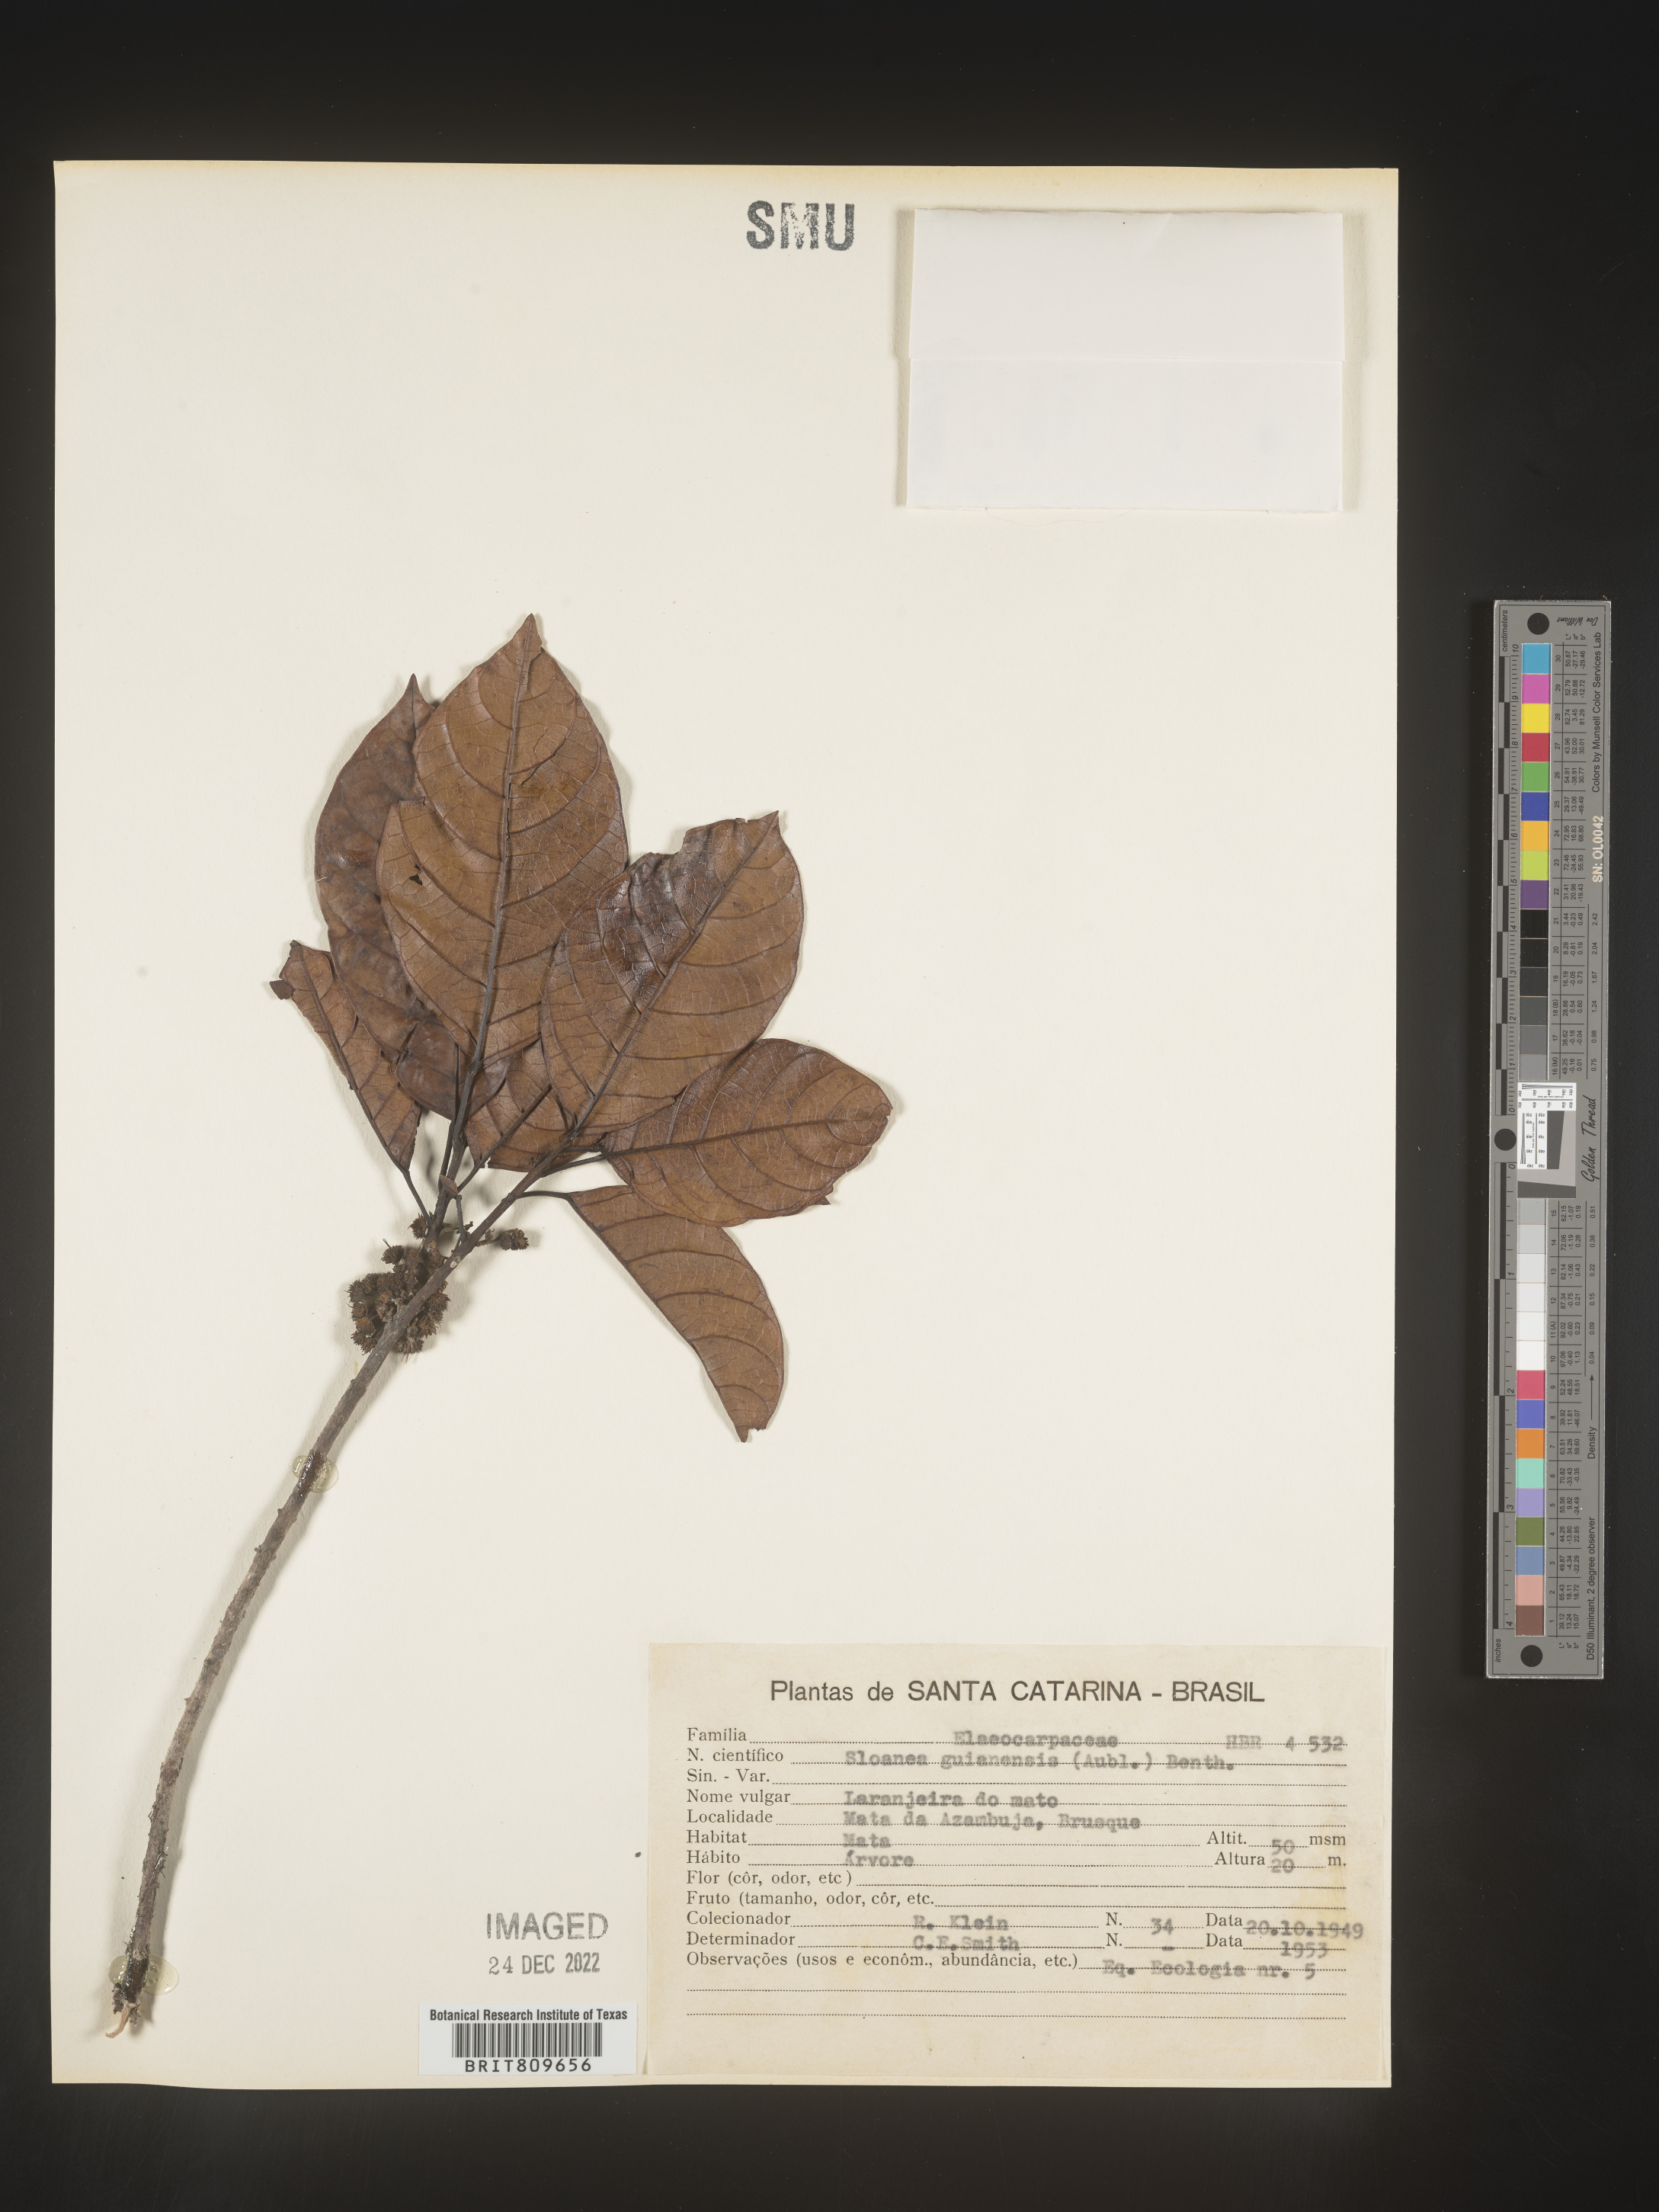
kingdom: Plantae
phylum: Tracheophyta
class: Magnoliopsida
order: Oxalidales
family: Elaeocarpaceae
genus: Sloanea
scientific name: Sloanea
